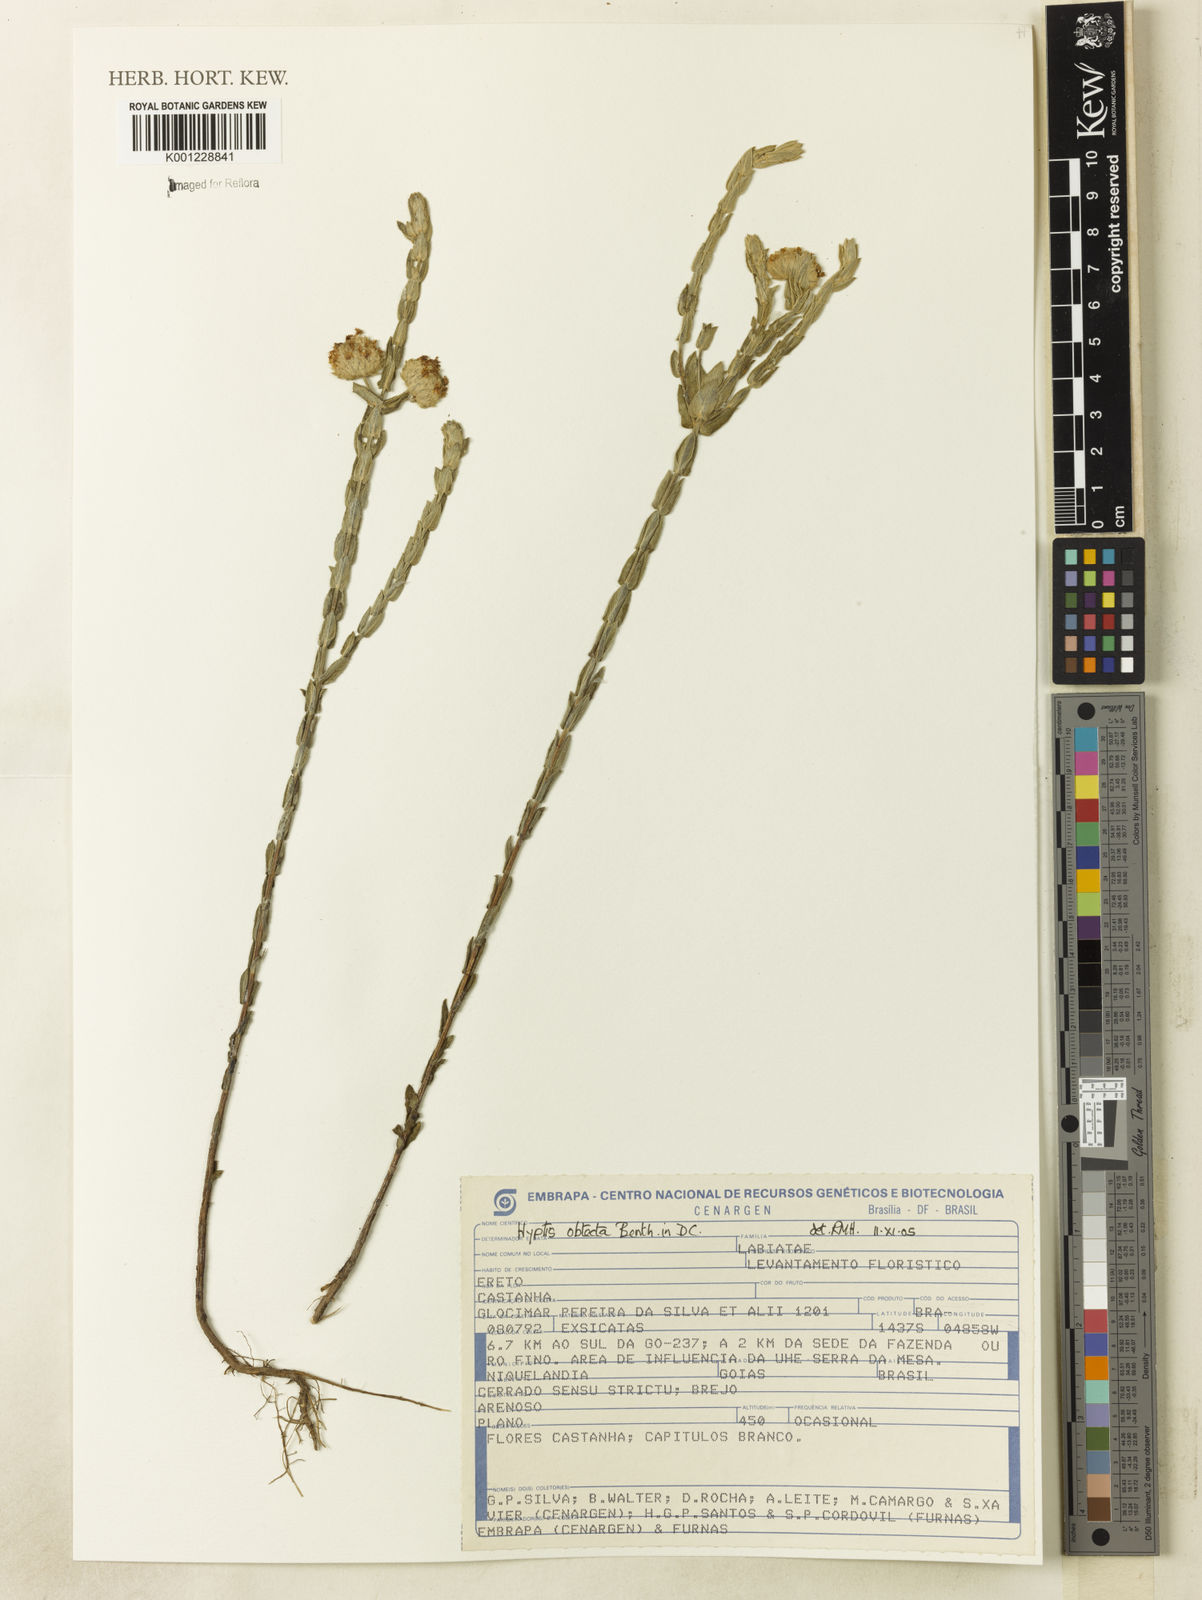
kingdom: Plantae
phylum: Tracheophyta
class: Magnoliopsida
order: Lamiales
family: Lamiaceae
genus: Hyptis
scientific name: Hyptis obtecta
